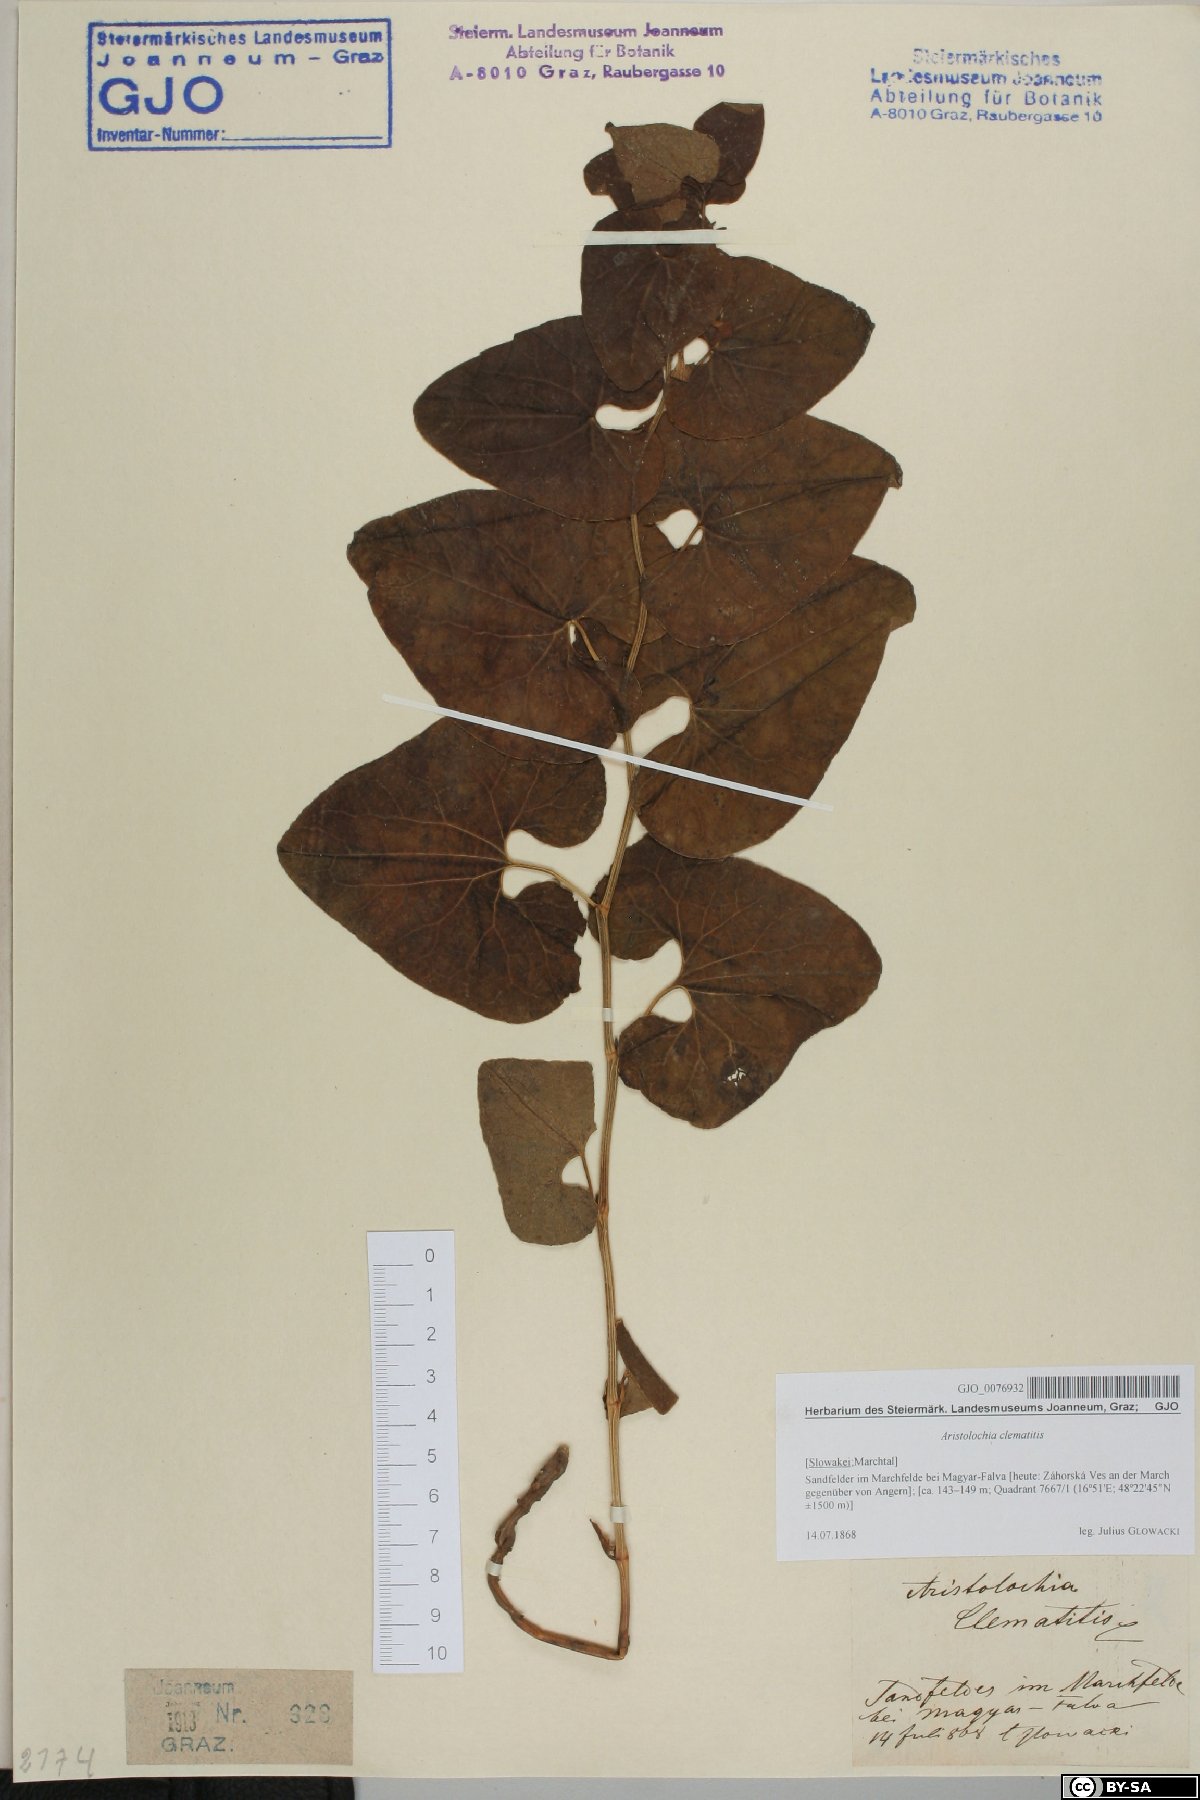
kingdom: Plantae
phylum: Tracheophyta
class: Magnoliopsida
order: Piperales
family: Aristolochiaceae
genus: Aristolochia
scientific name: Aristolochia clematitis
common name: Birthwort
